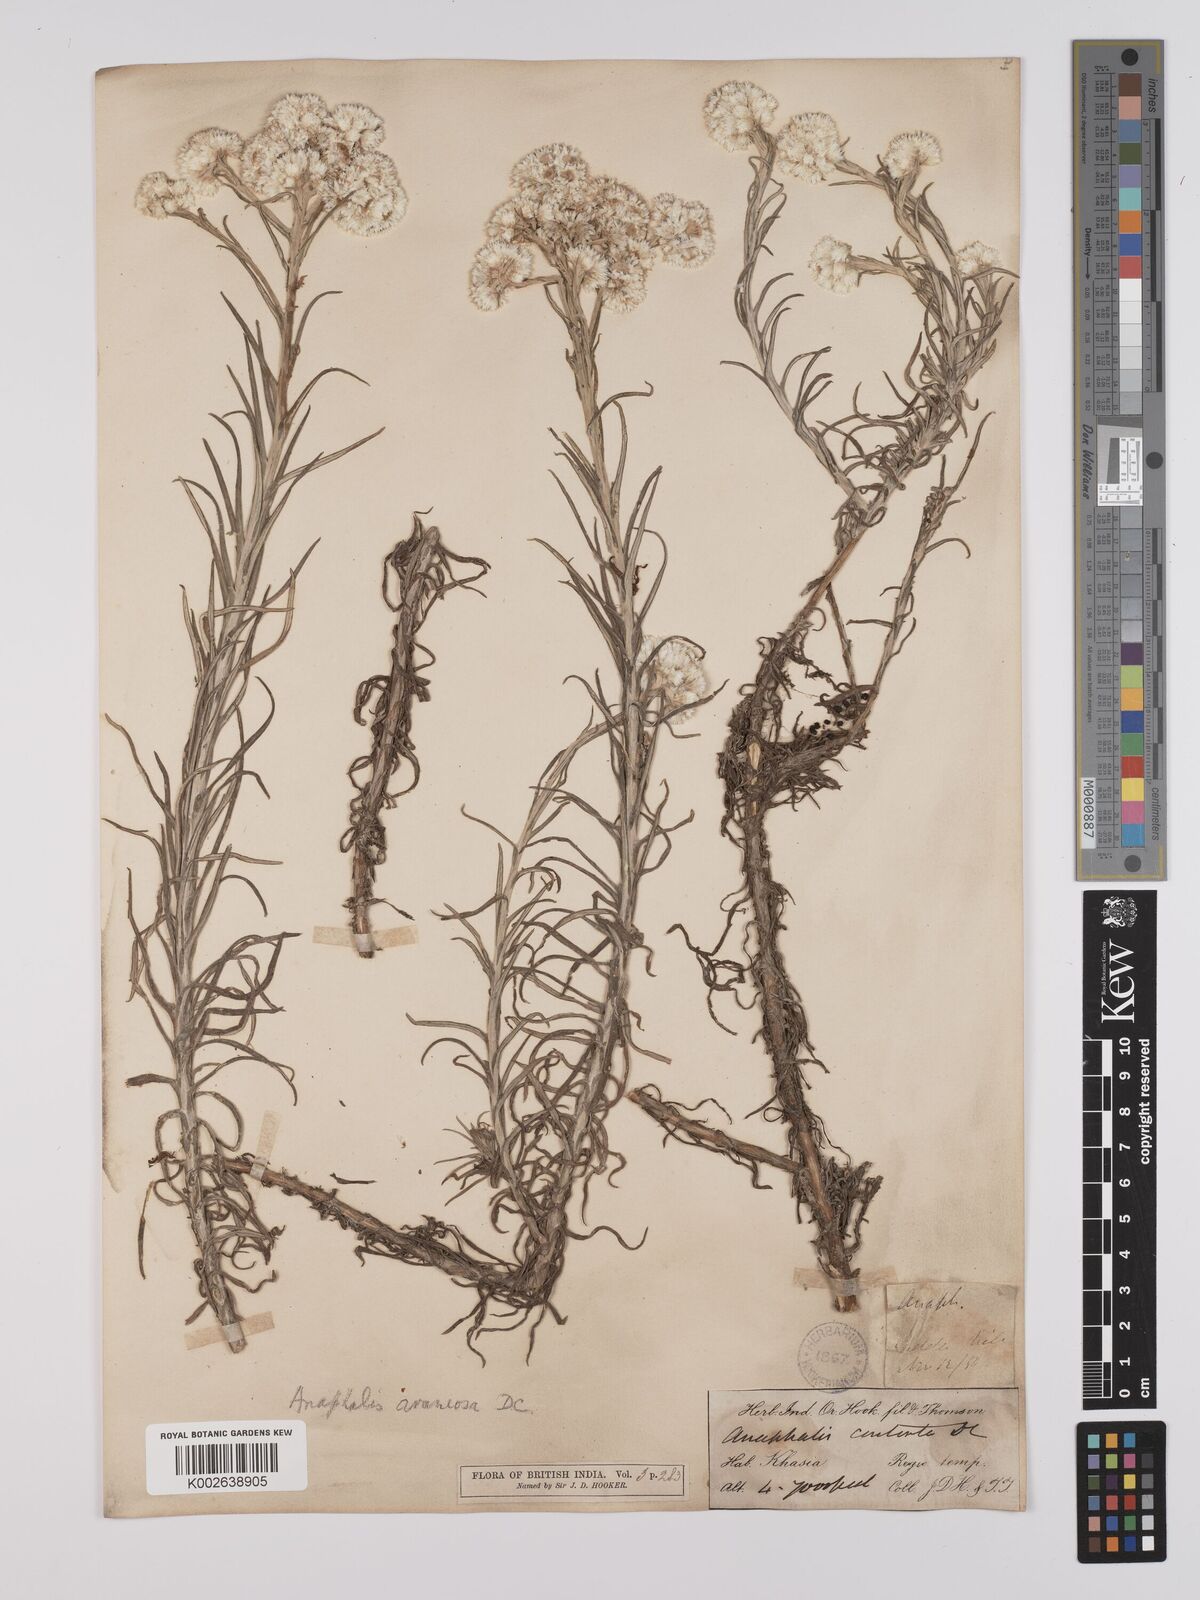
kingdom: Plantae
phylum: Tracheophyta
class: Magnoliopsida
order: Asterales
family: Asteraceae
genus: Anaphalis
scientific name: Anaphalis busua
